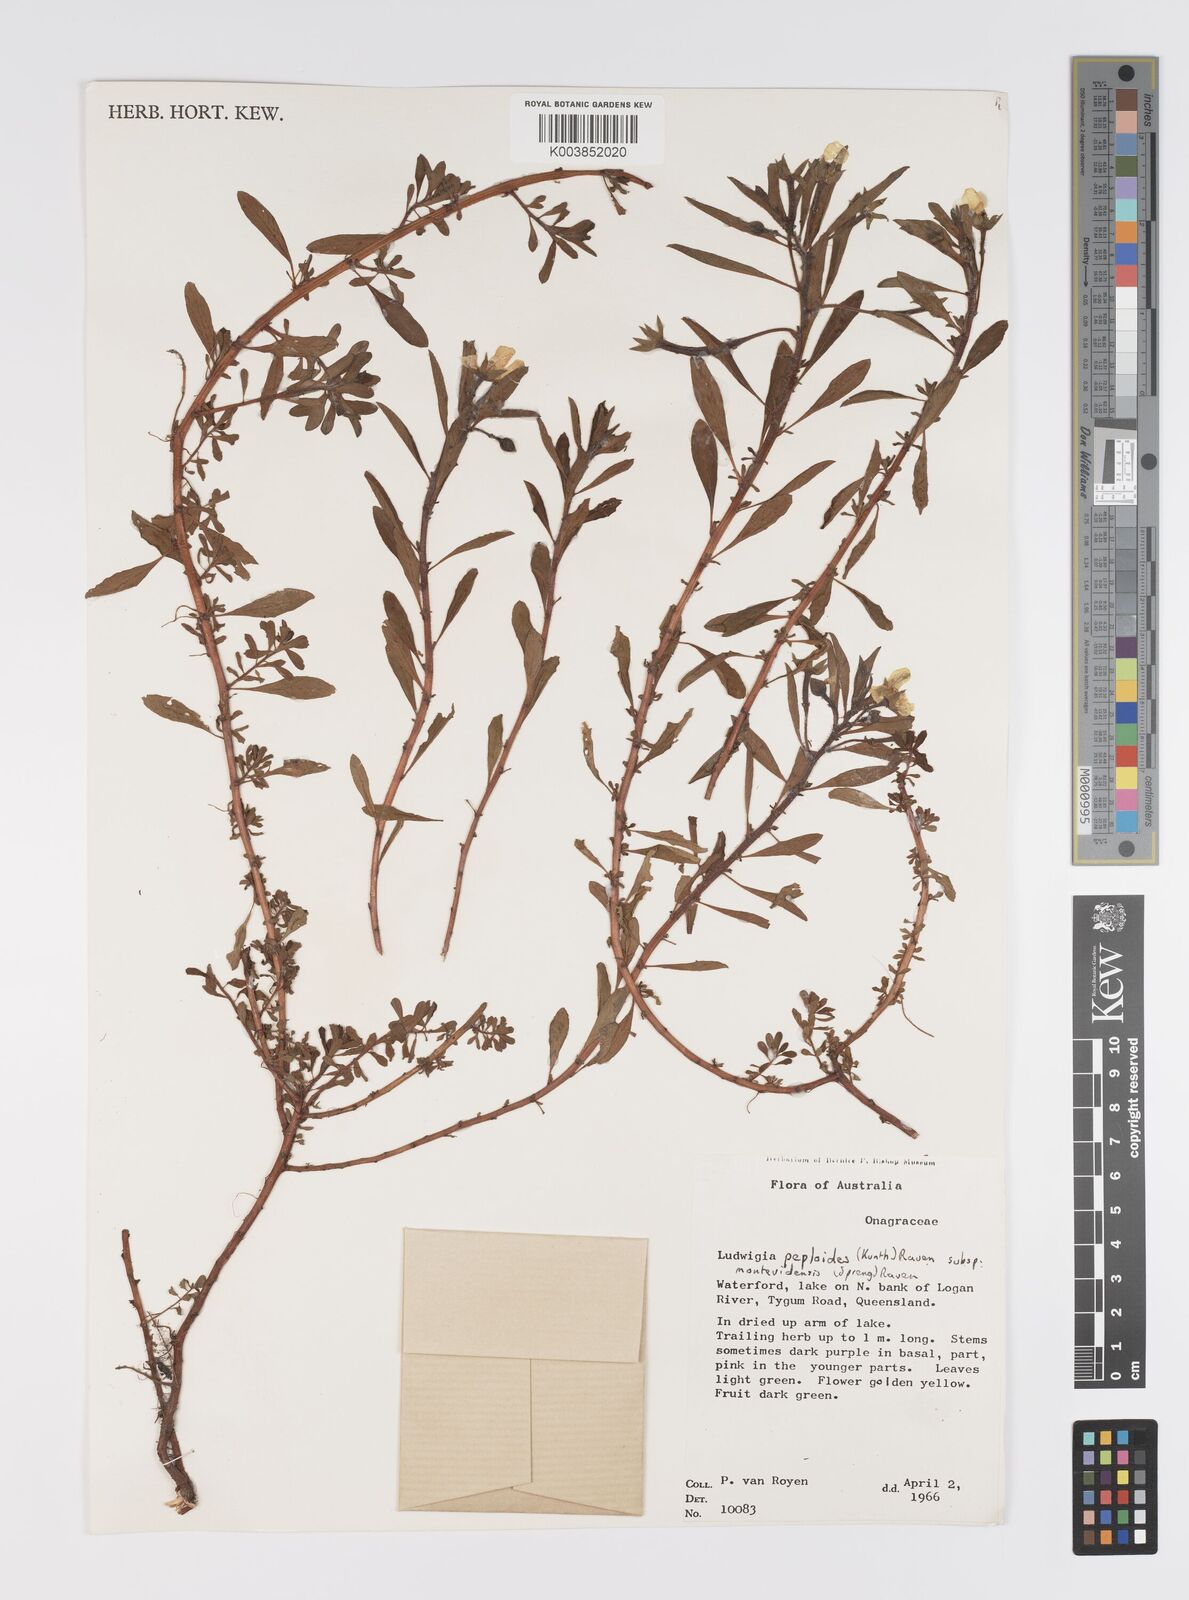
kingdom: Plantae
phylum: Tracheophyta
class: Magnoliopsida
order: Myrtales
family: Onagraceae
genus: Ludwigia
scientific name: Ludwigia peploides
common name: Floating primrose-willow
